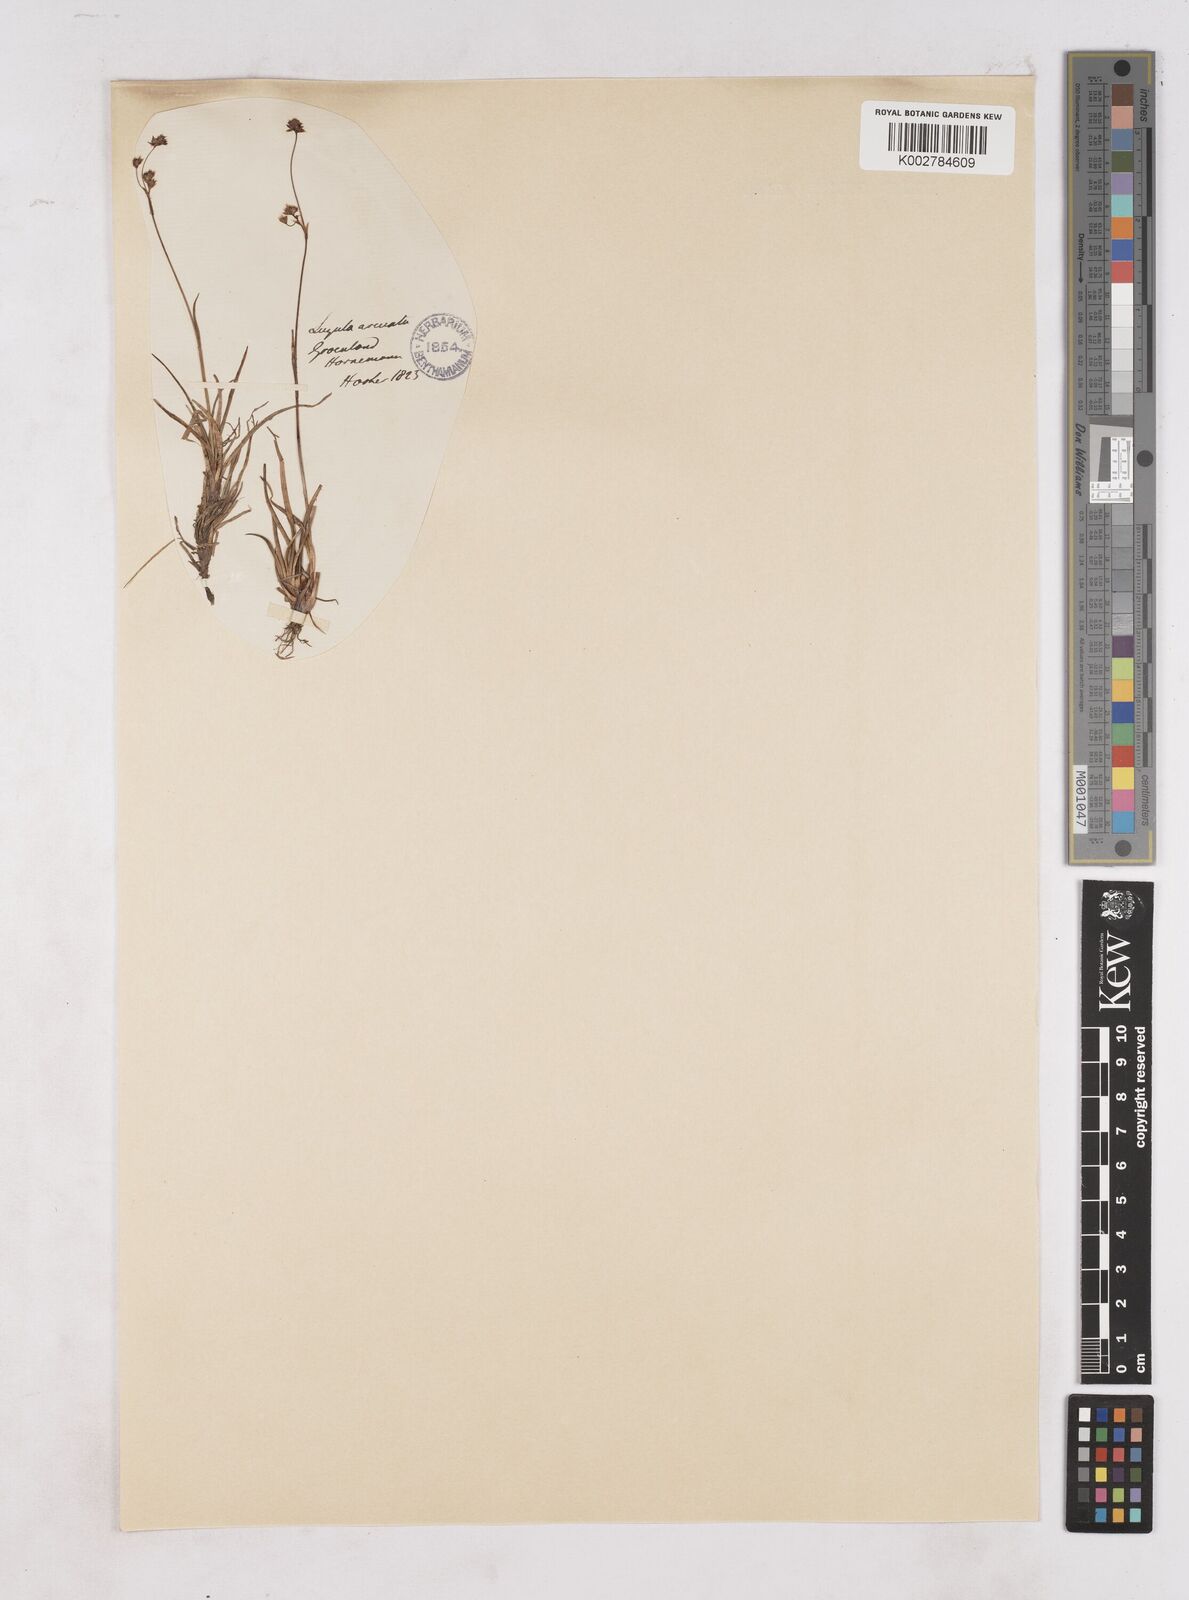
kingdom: Plantae
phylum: Tracheophyta
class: Liliopsida
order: Poales
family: Juncaceae
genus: Luzula
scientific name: Luzula arcuata
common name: Curved wood-rush
